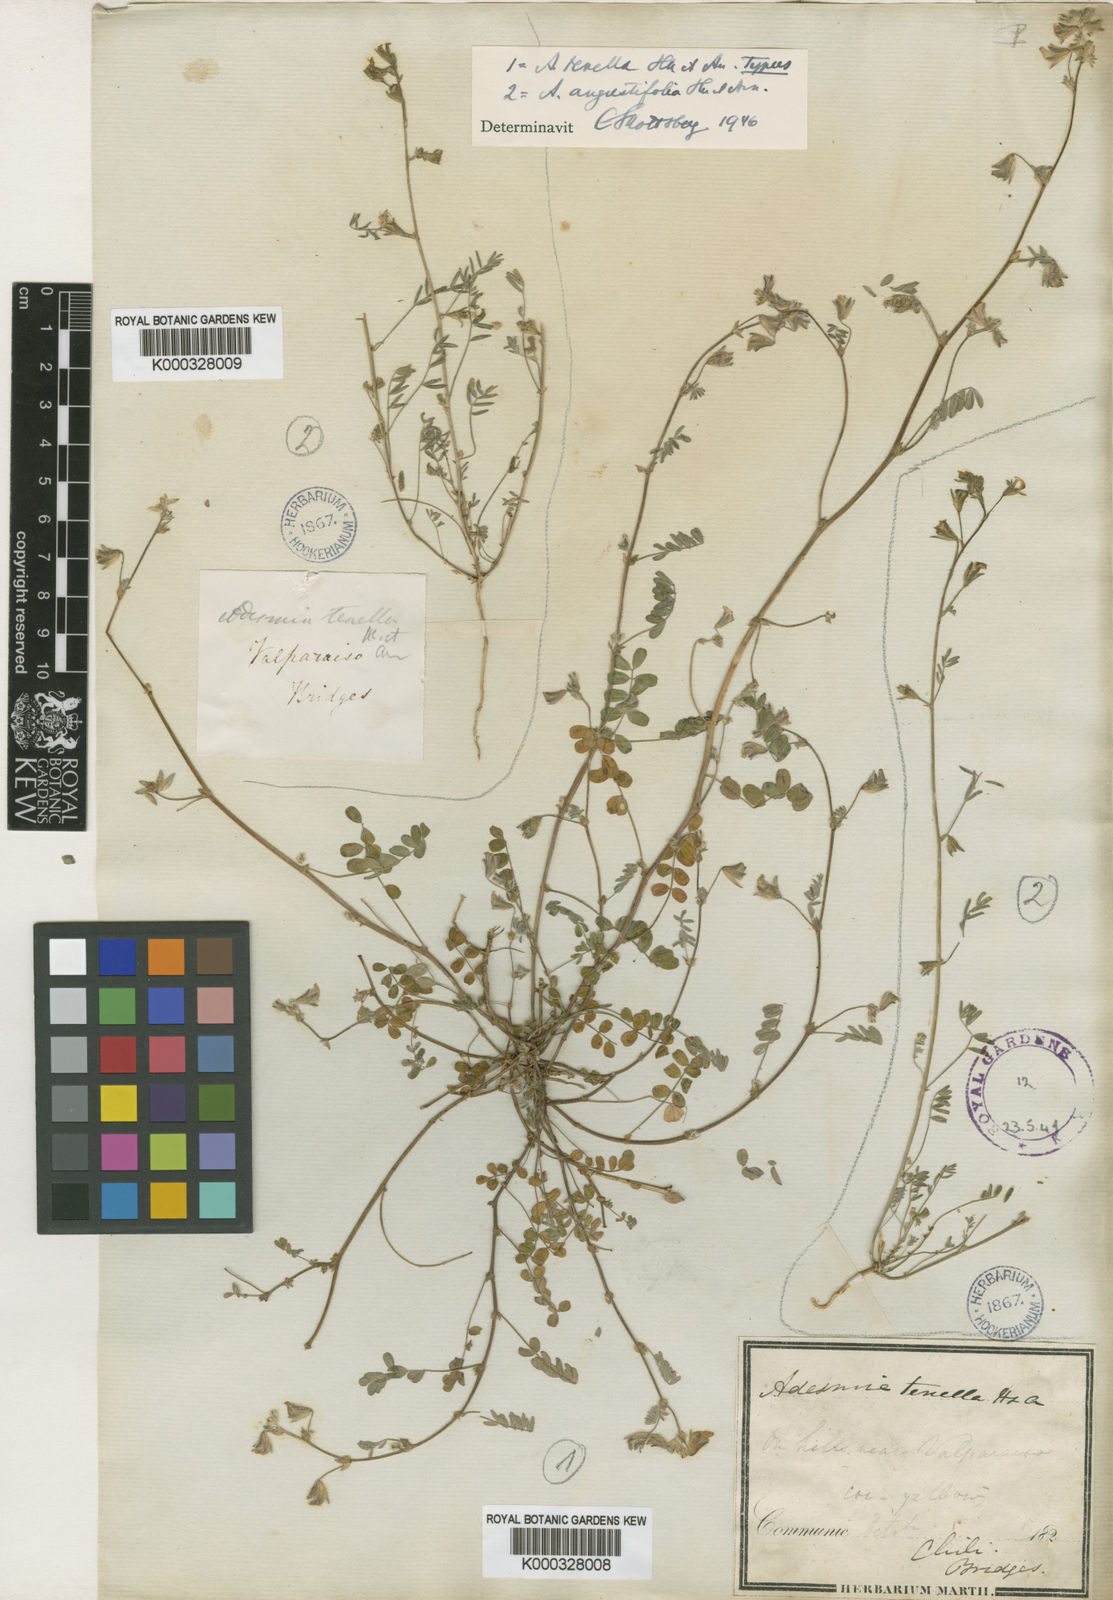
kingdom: Plantae
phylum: Tracheophyta
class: Magnoliopsida
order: Fabales
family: Fabaceae
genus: Adesmia
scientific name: Adesmia tenella
